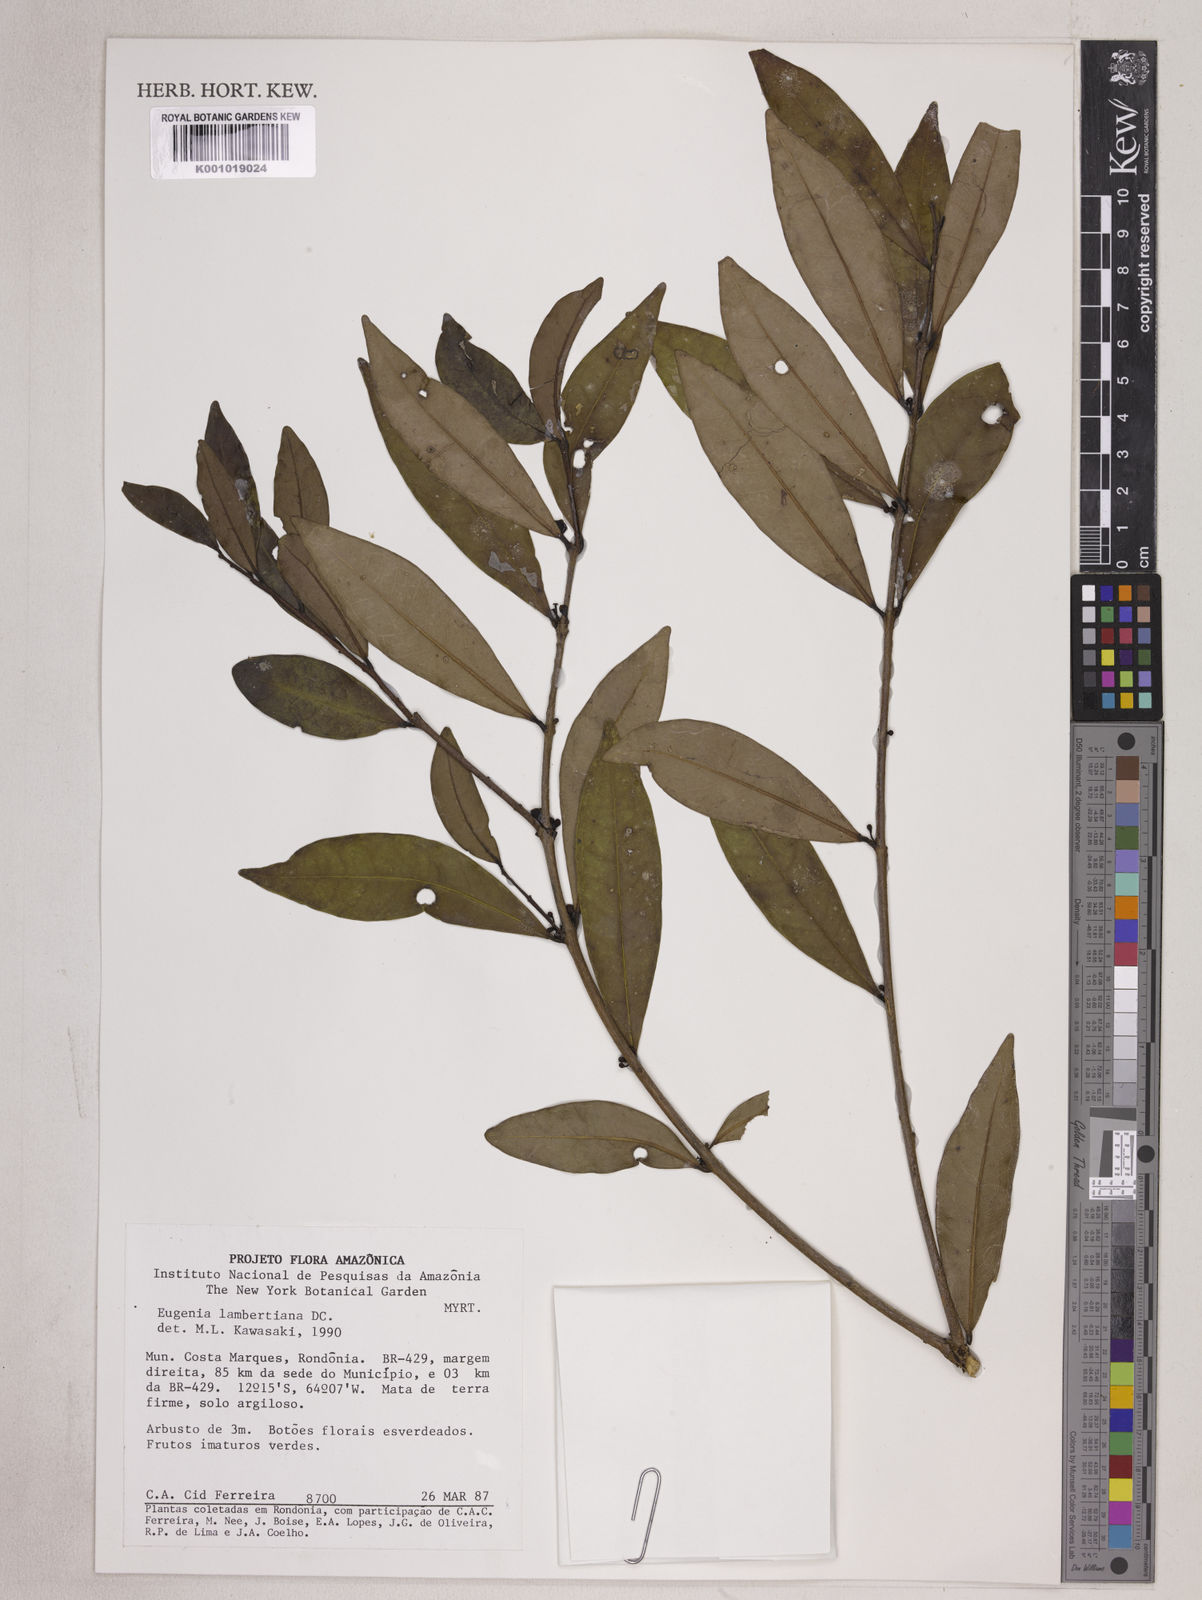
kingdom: Plantae
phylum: Tracheophyta
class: Magnoliopsida
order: Myrtales
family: Myrtaceae
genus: Eugenia
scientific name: Eugenia lambertiana
